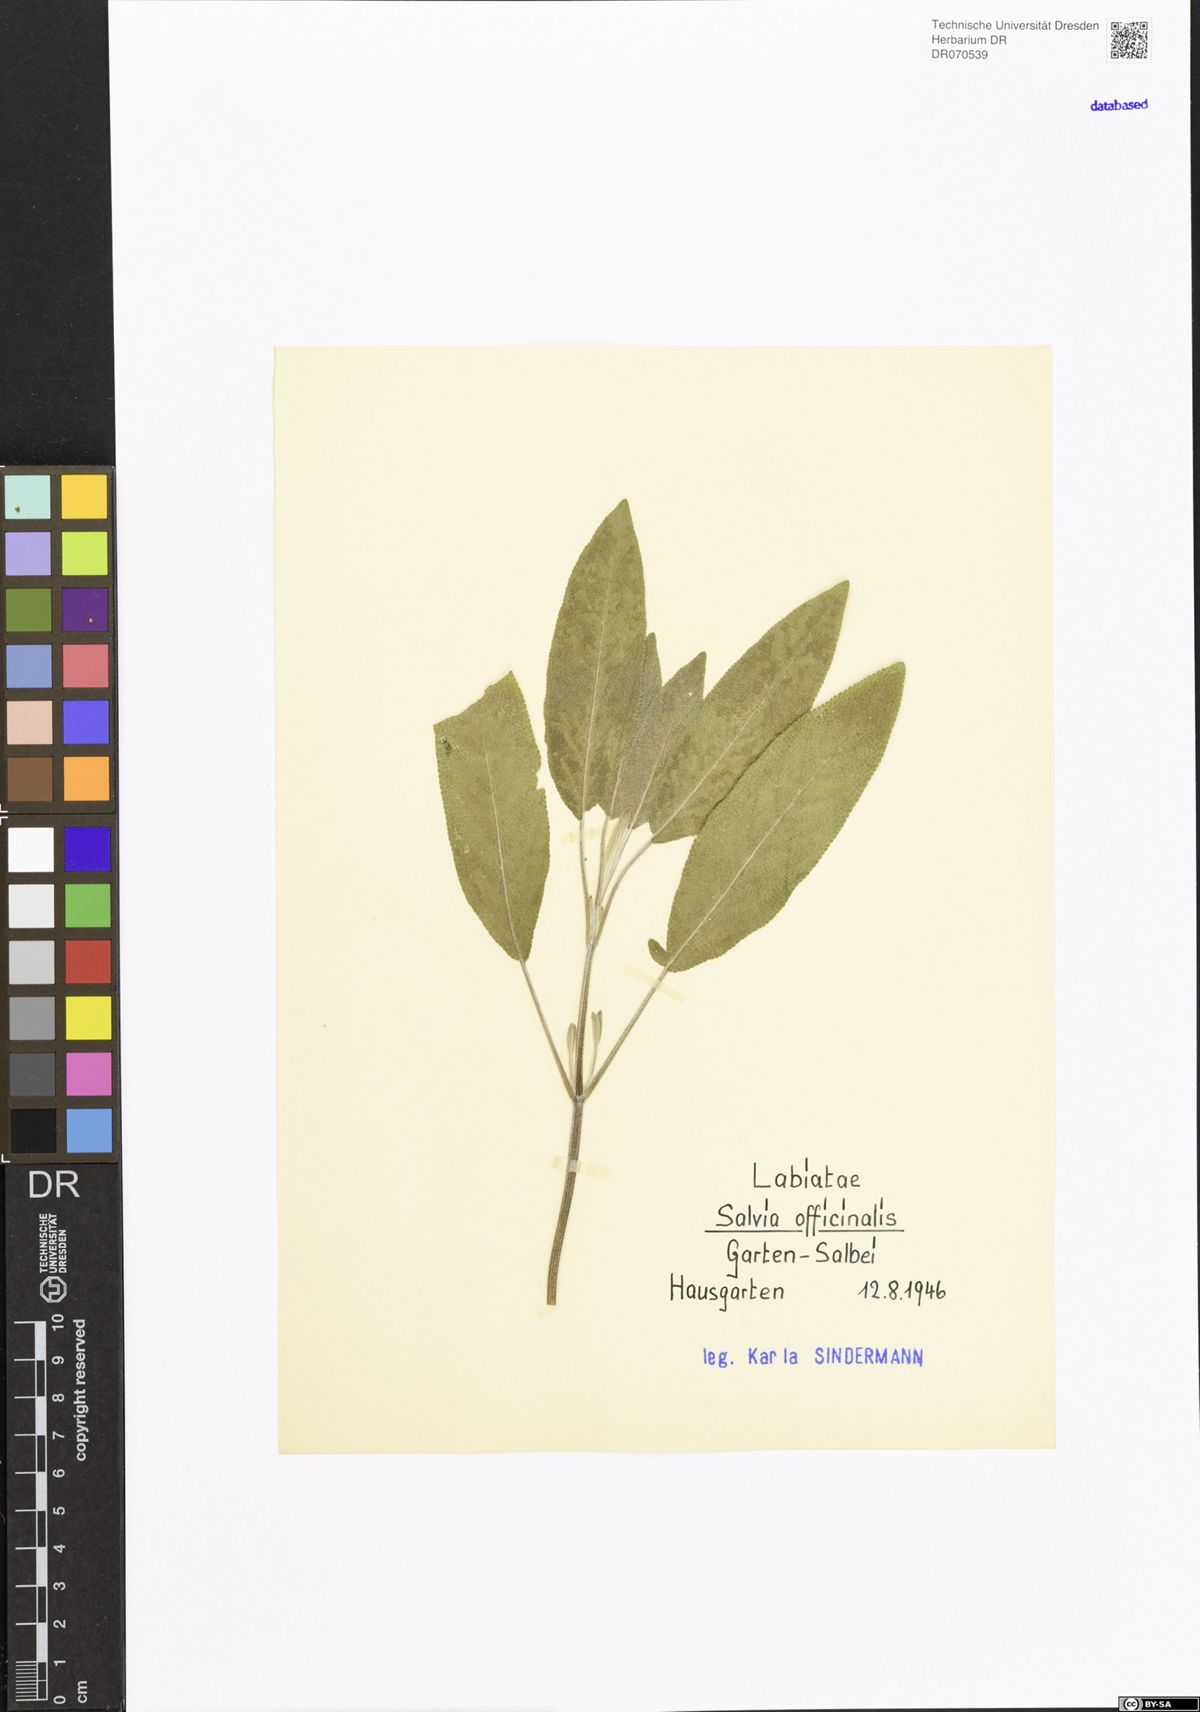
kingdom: Plantae
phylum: Tracheophyta
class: Magnoliopsida
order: Lamiales
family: Lamiaceae
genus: Salvia
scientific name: Salvia officinalis
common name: Sage
